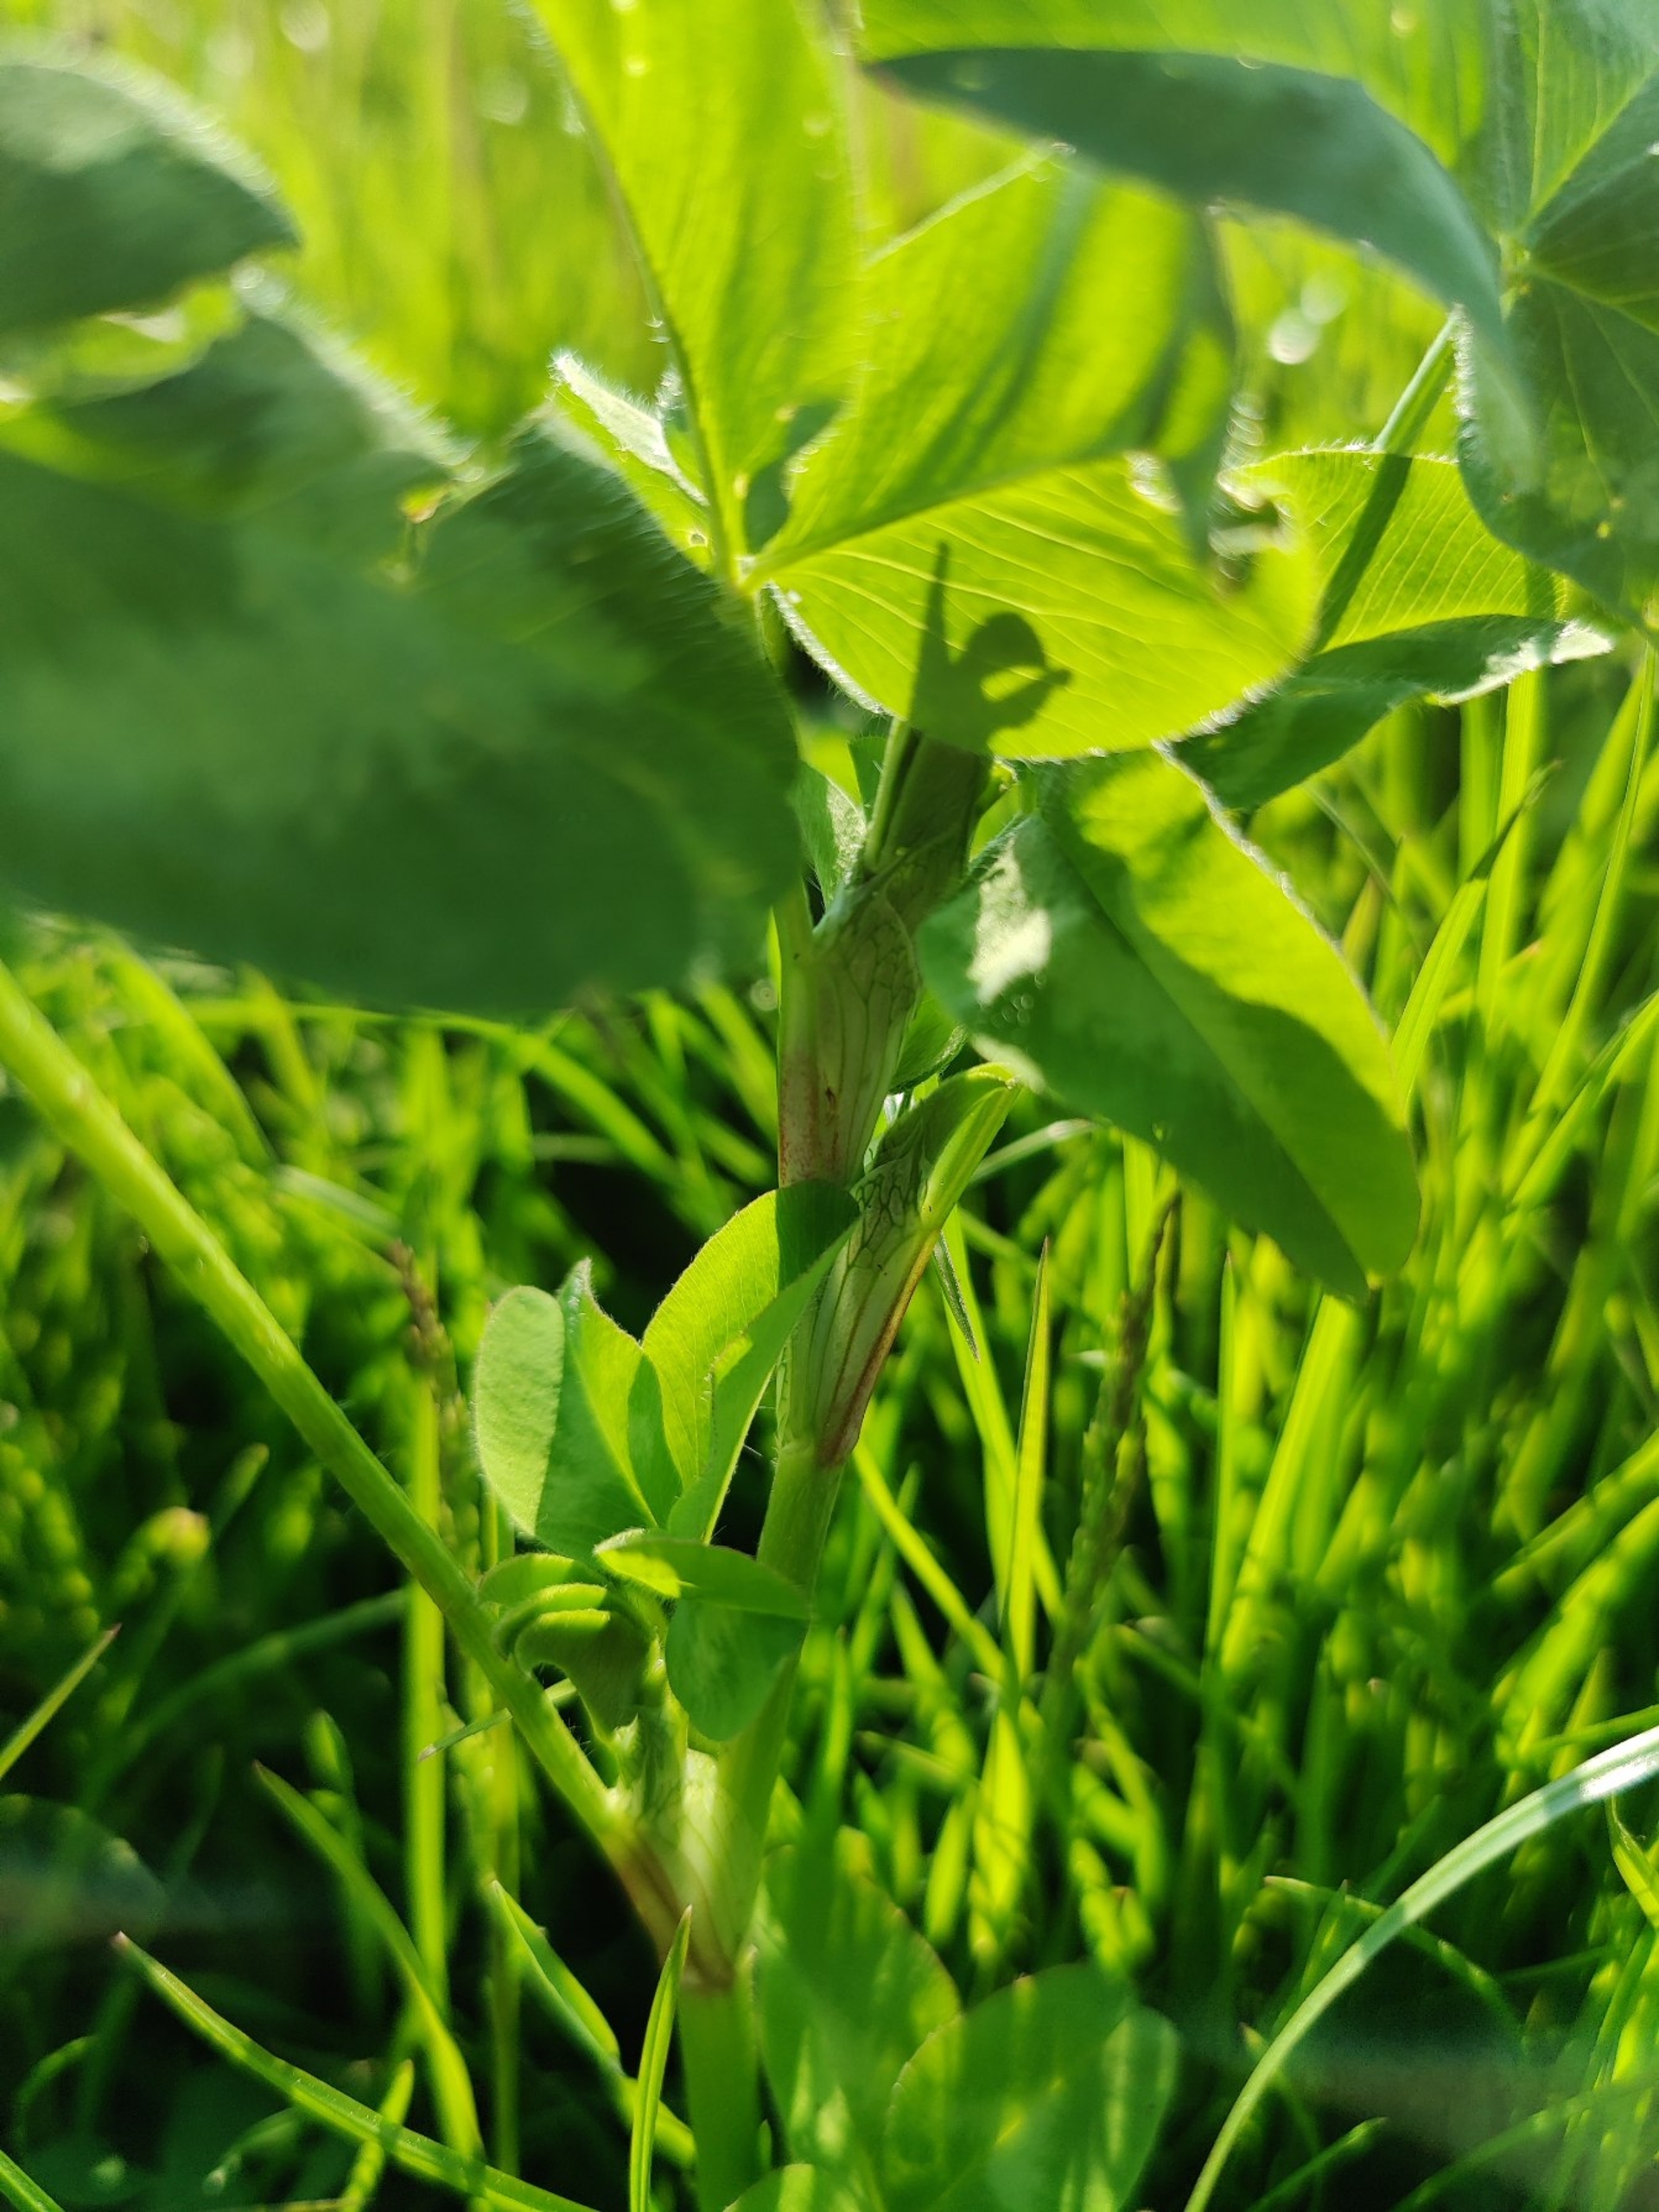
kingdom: Plantae
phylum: Tracheophyta
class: Magnoliopsida
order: Fabales
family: Fabaceae
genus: Trifolium
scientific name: Trifolium pratense
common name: Rød-kløver
